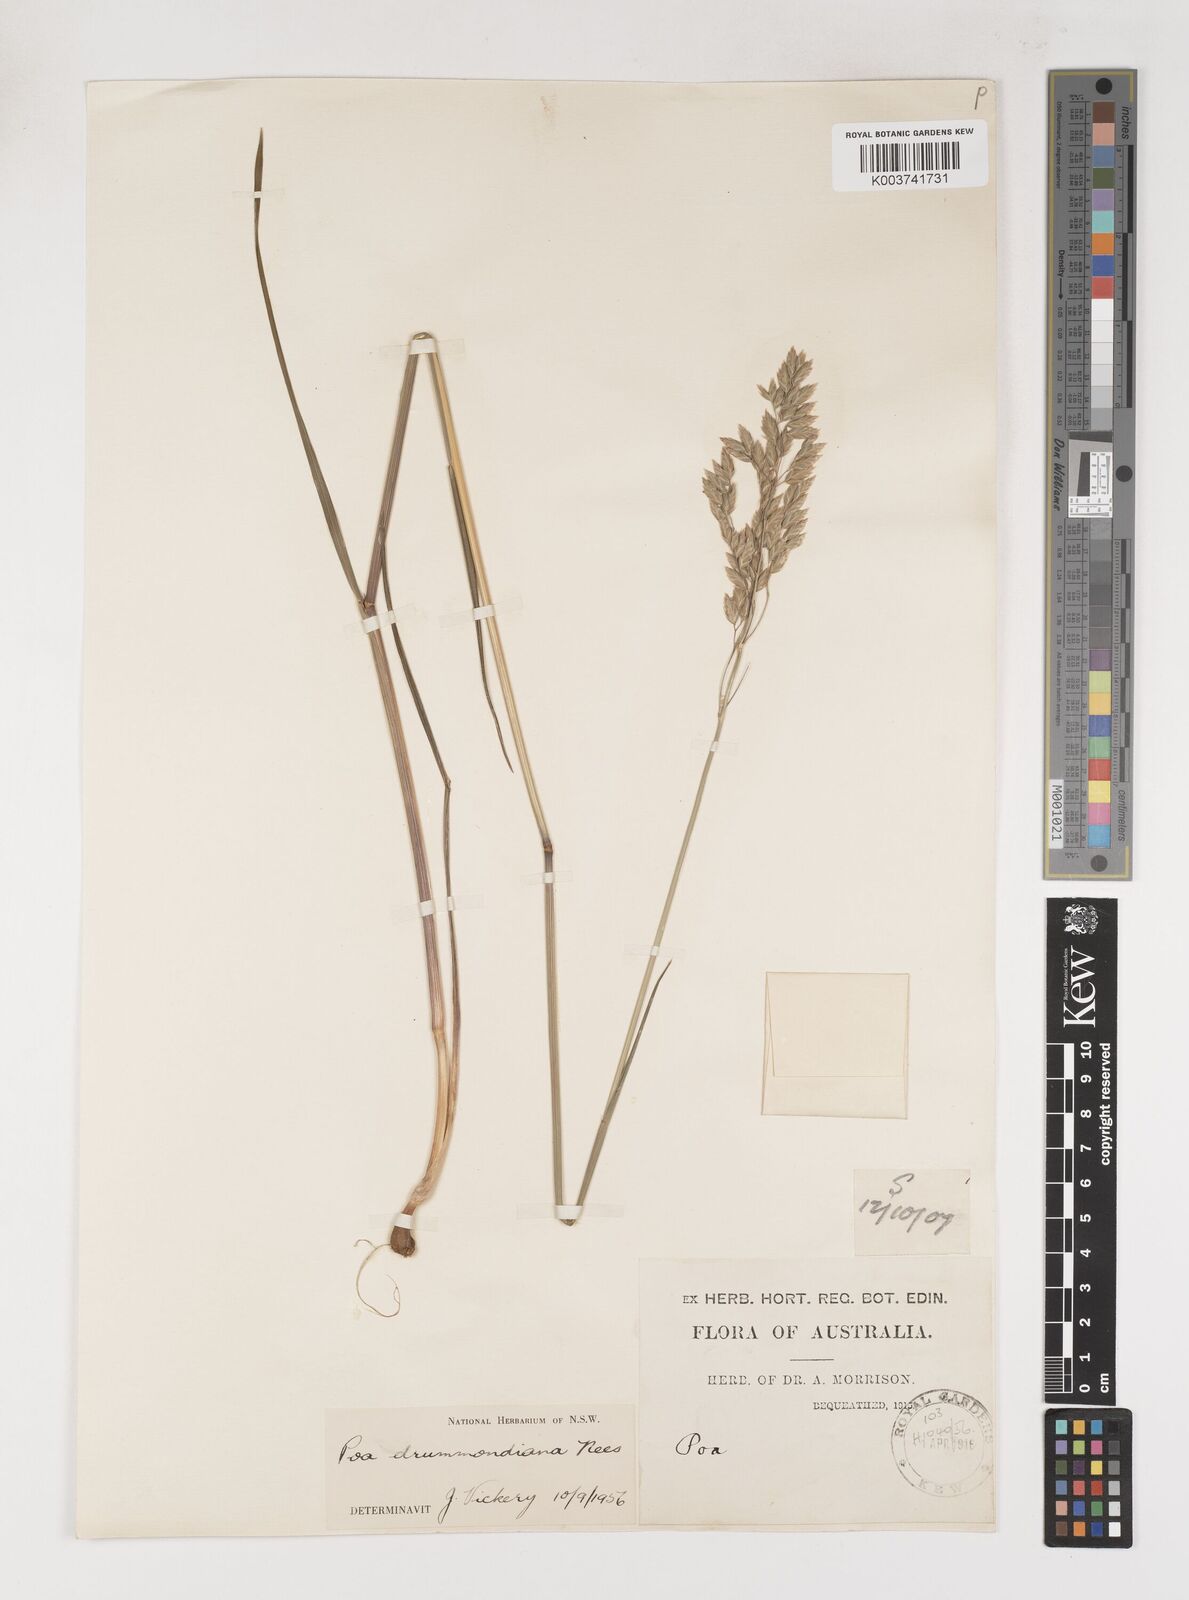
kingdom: Plantae
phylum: Tracheophyta
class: Liliopsida
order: Poales
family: Poaceae
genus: Poa
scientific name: Poa drummondiana
